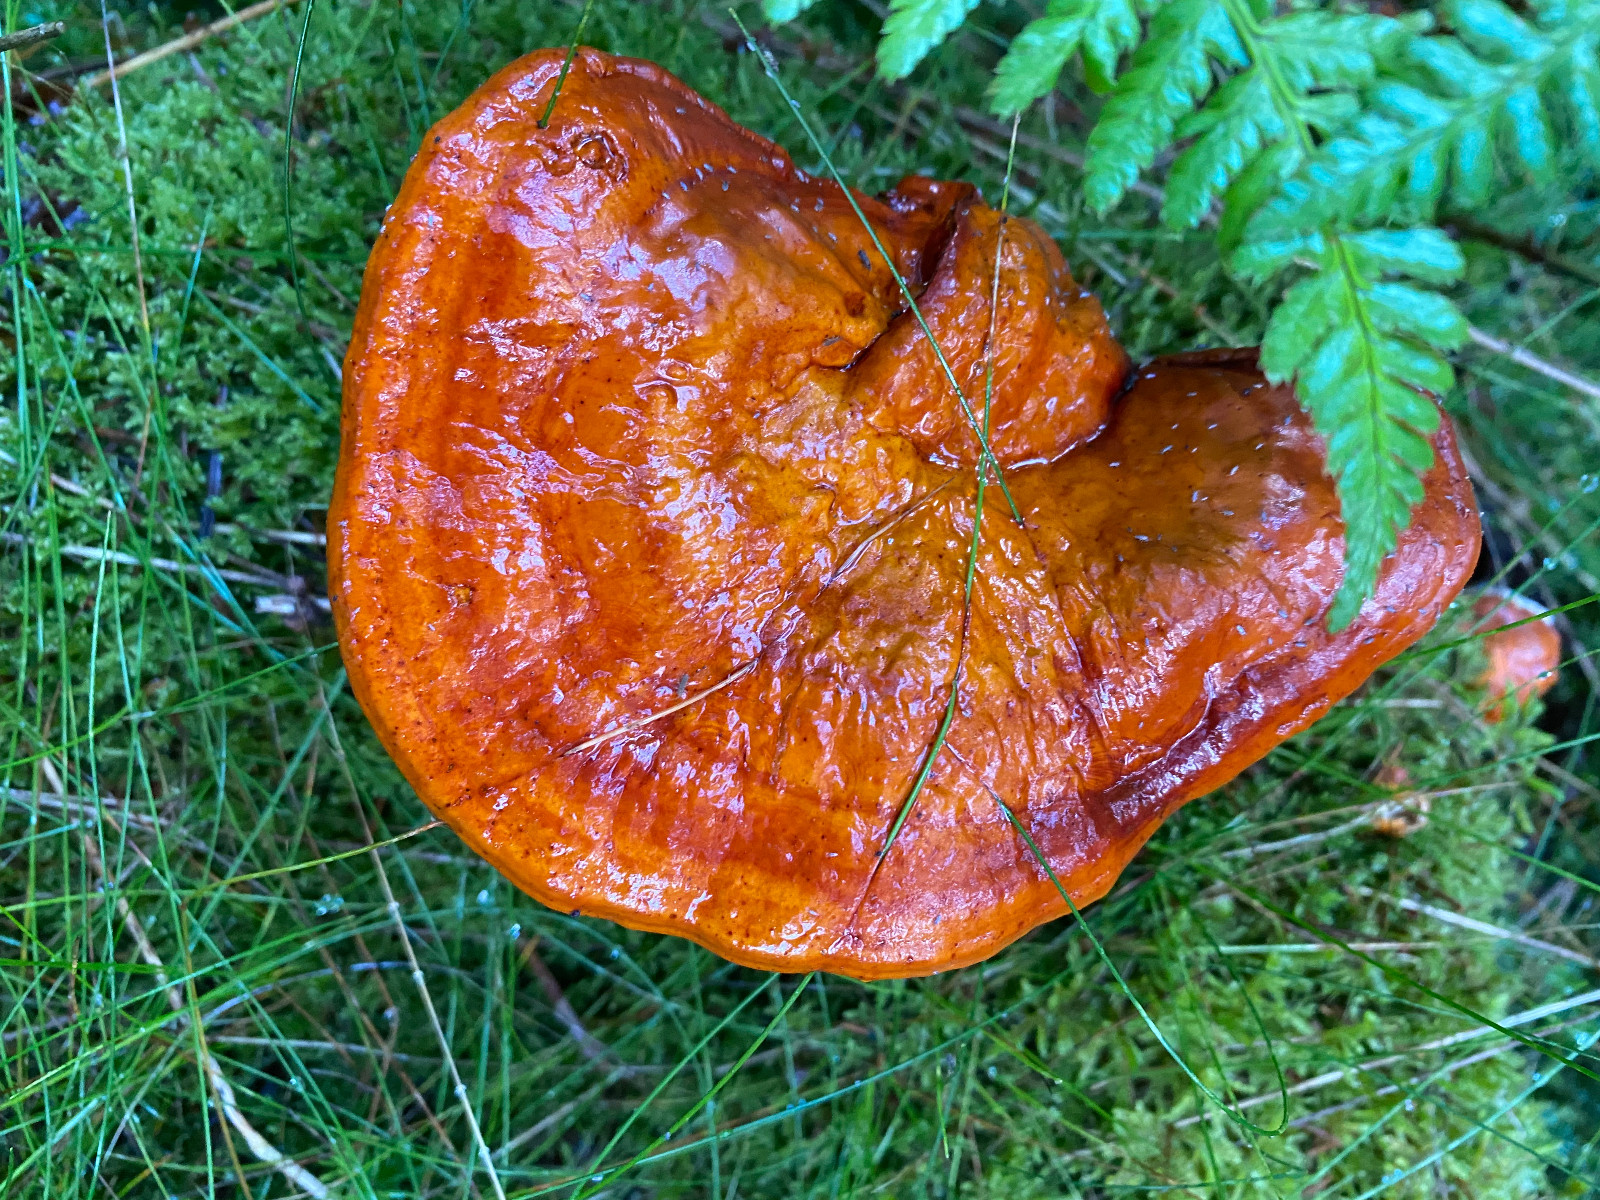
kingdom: Fungi
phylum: Basidiomycota
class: Agaricomycetes
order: Polyporales
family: Polyporaceae
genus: Ganoderma
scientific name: Ganoderma lucidum
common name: skinnende lakporesvamp
